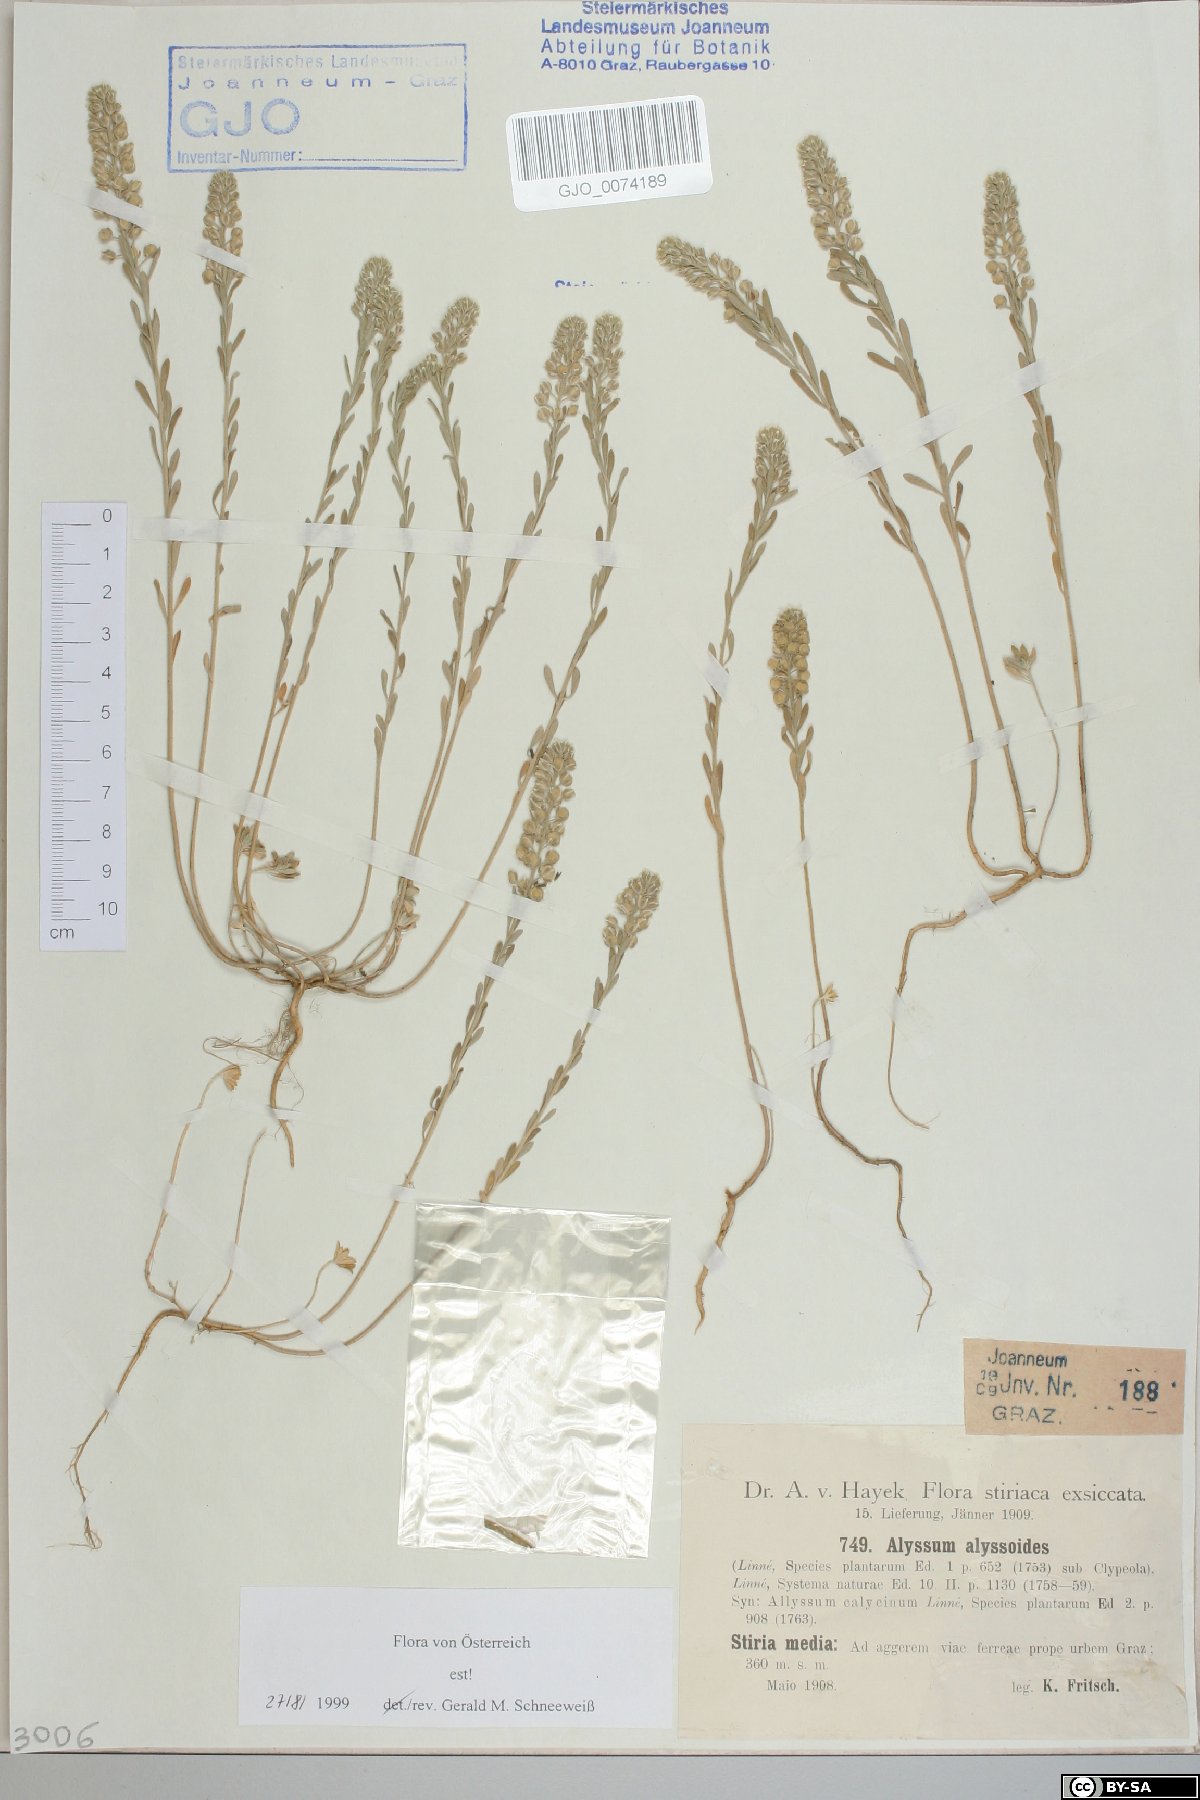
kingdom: Plantae
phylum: Tracheophyta
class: Magnoliopsida
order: Brassicales
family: Brassicaceae
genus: Alyssum
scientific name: Alyssum alyssoides
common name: Small alison
